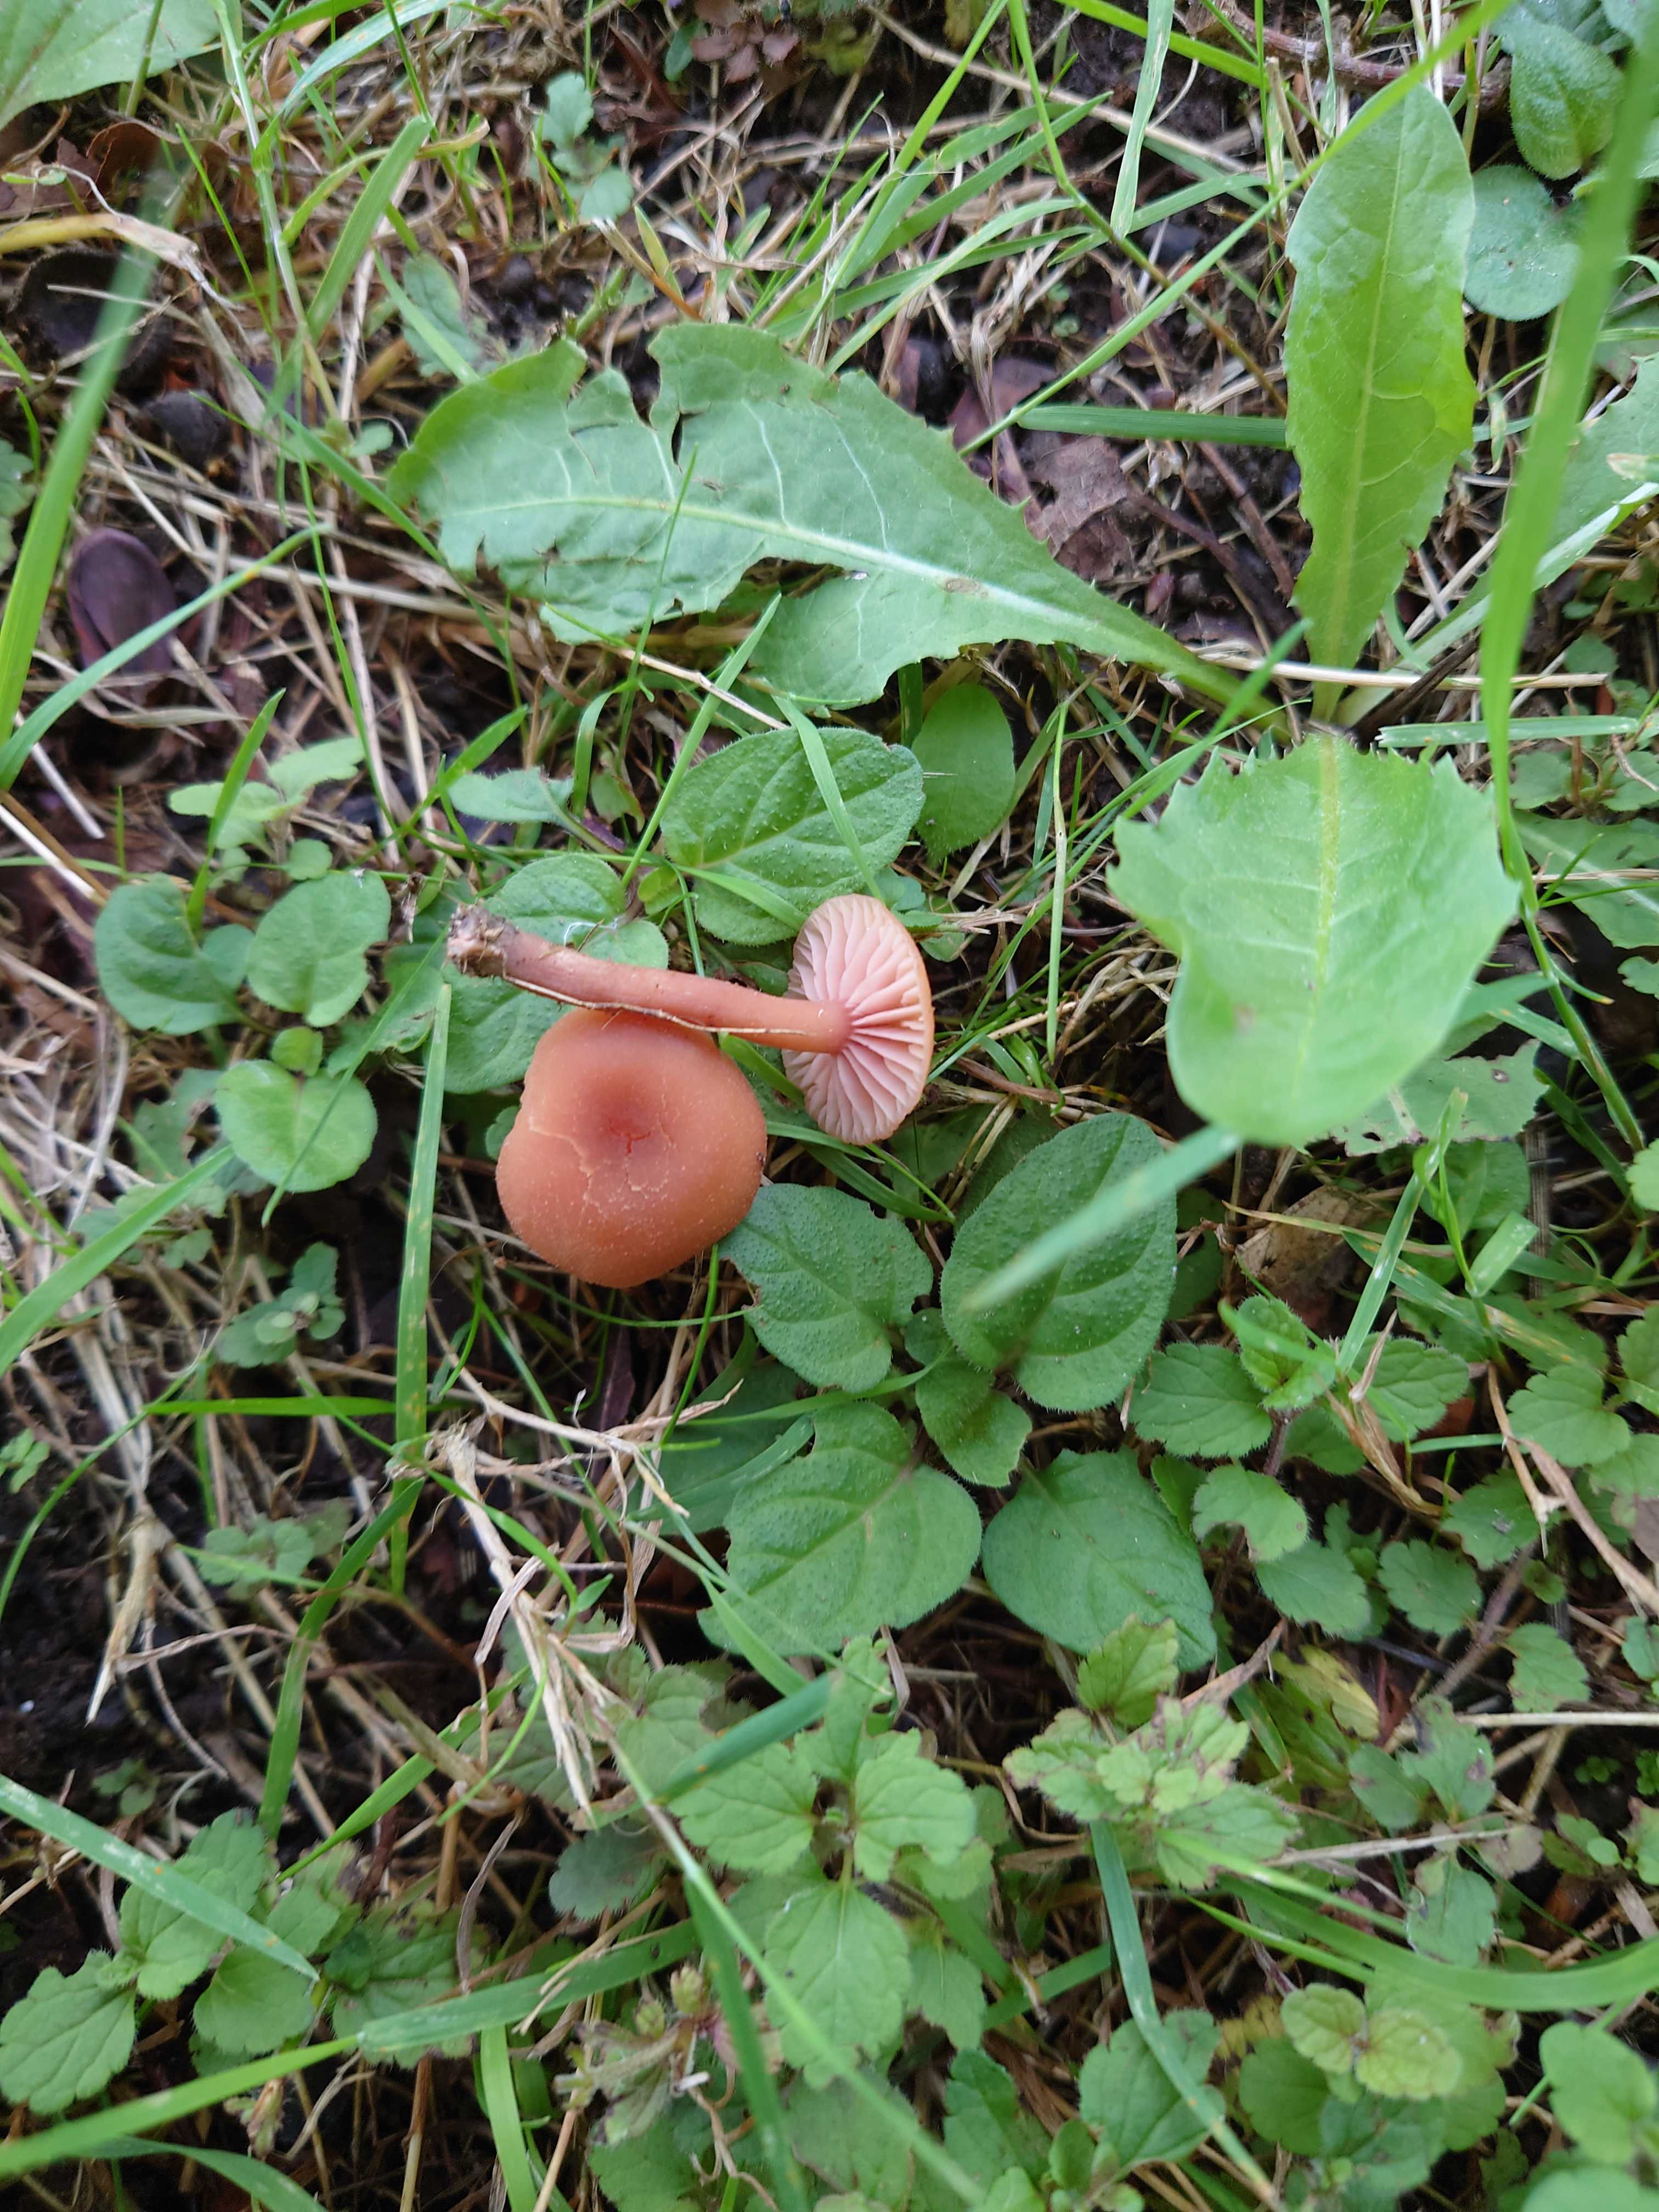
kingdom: Fungi
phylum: Basidiomycota
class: Agaricomycetes
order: Agaricales
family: Hydnangiaceae
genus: Laccaria
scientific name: Laccaria laccata
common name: rød ametysthat
